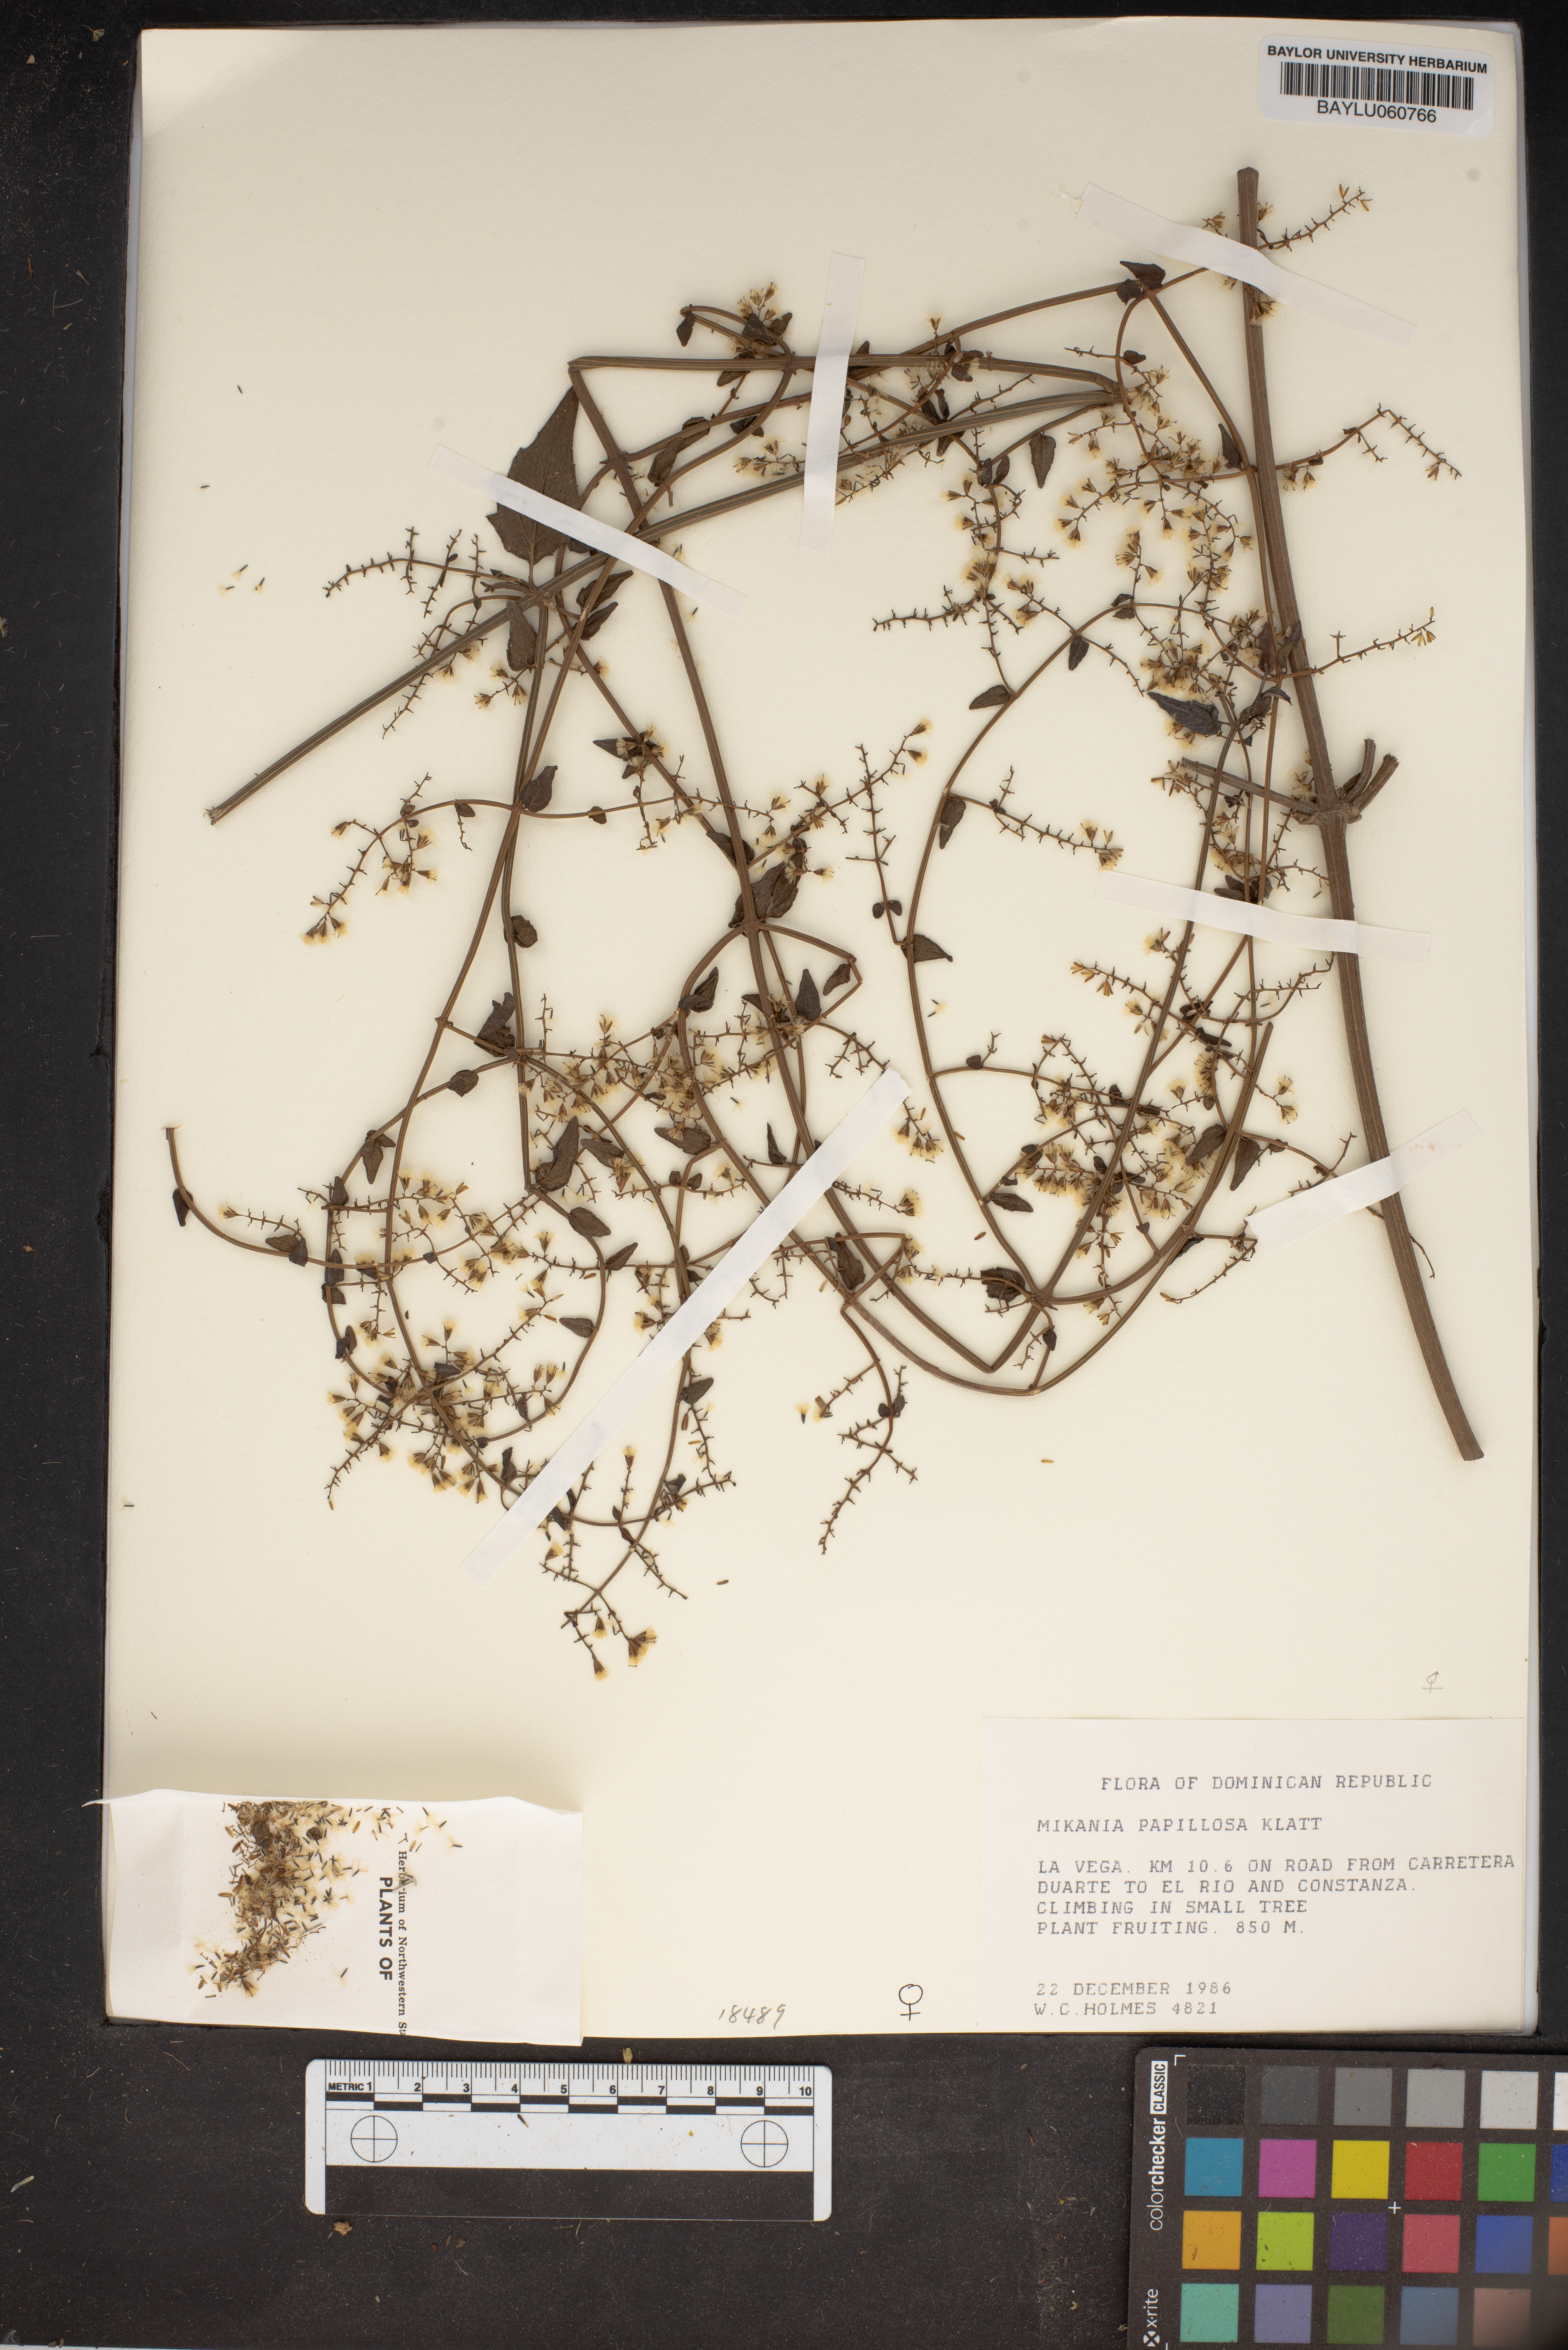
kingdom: Plantae
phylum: Tracheophyta
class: Magnoliopsida
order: Asterales
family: Asteraceae
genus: Mikania
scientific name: Mikania papillosa
